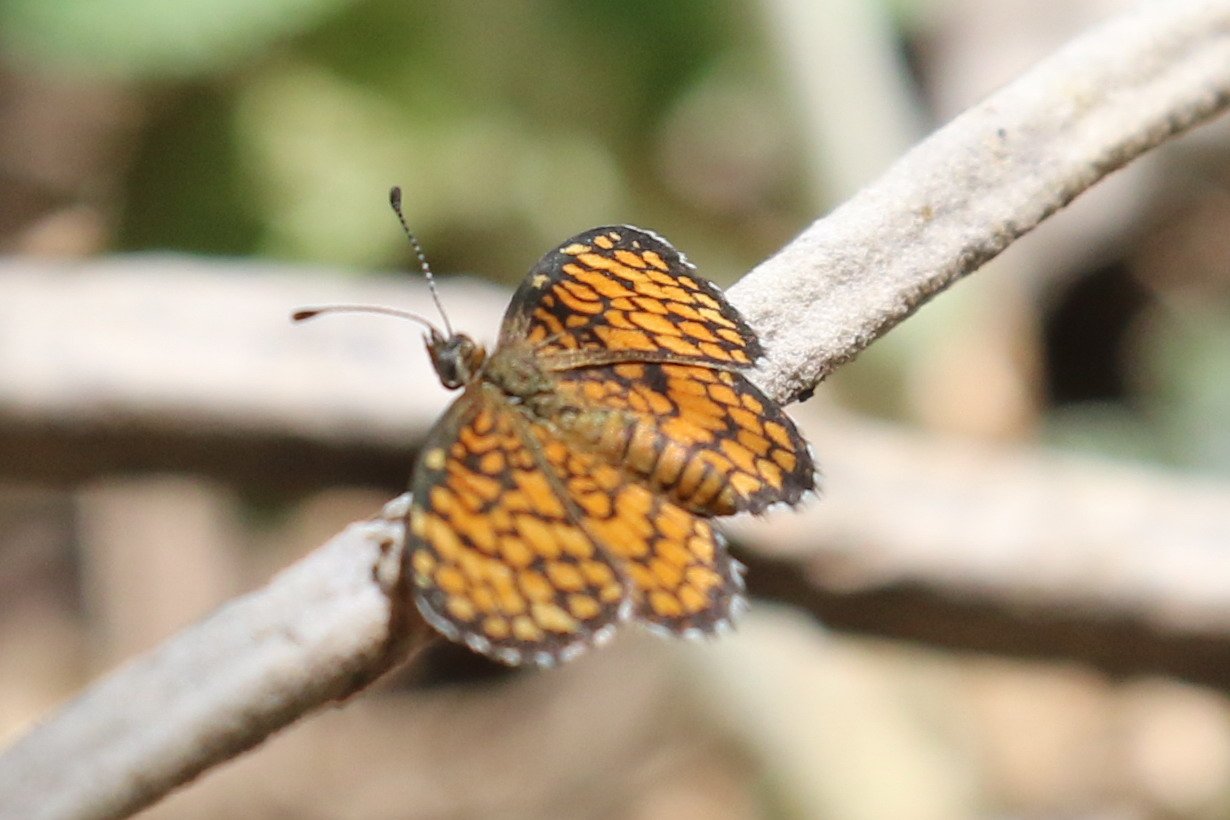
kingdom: Animalia
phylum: Arthropoda
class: Insecta
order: Lepidoptera
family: Nymphalidae
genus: Texola
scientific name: Texola elada
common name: Elada Checkerspot
